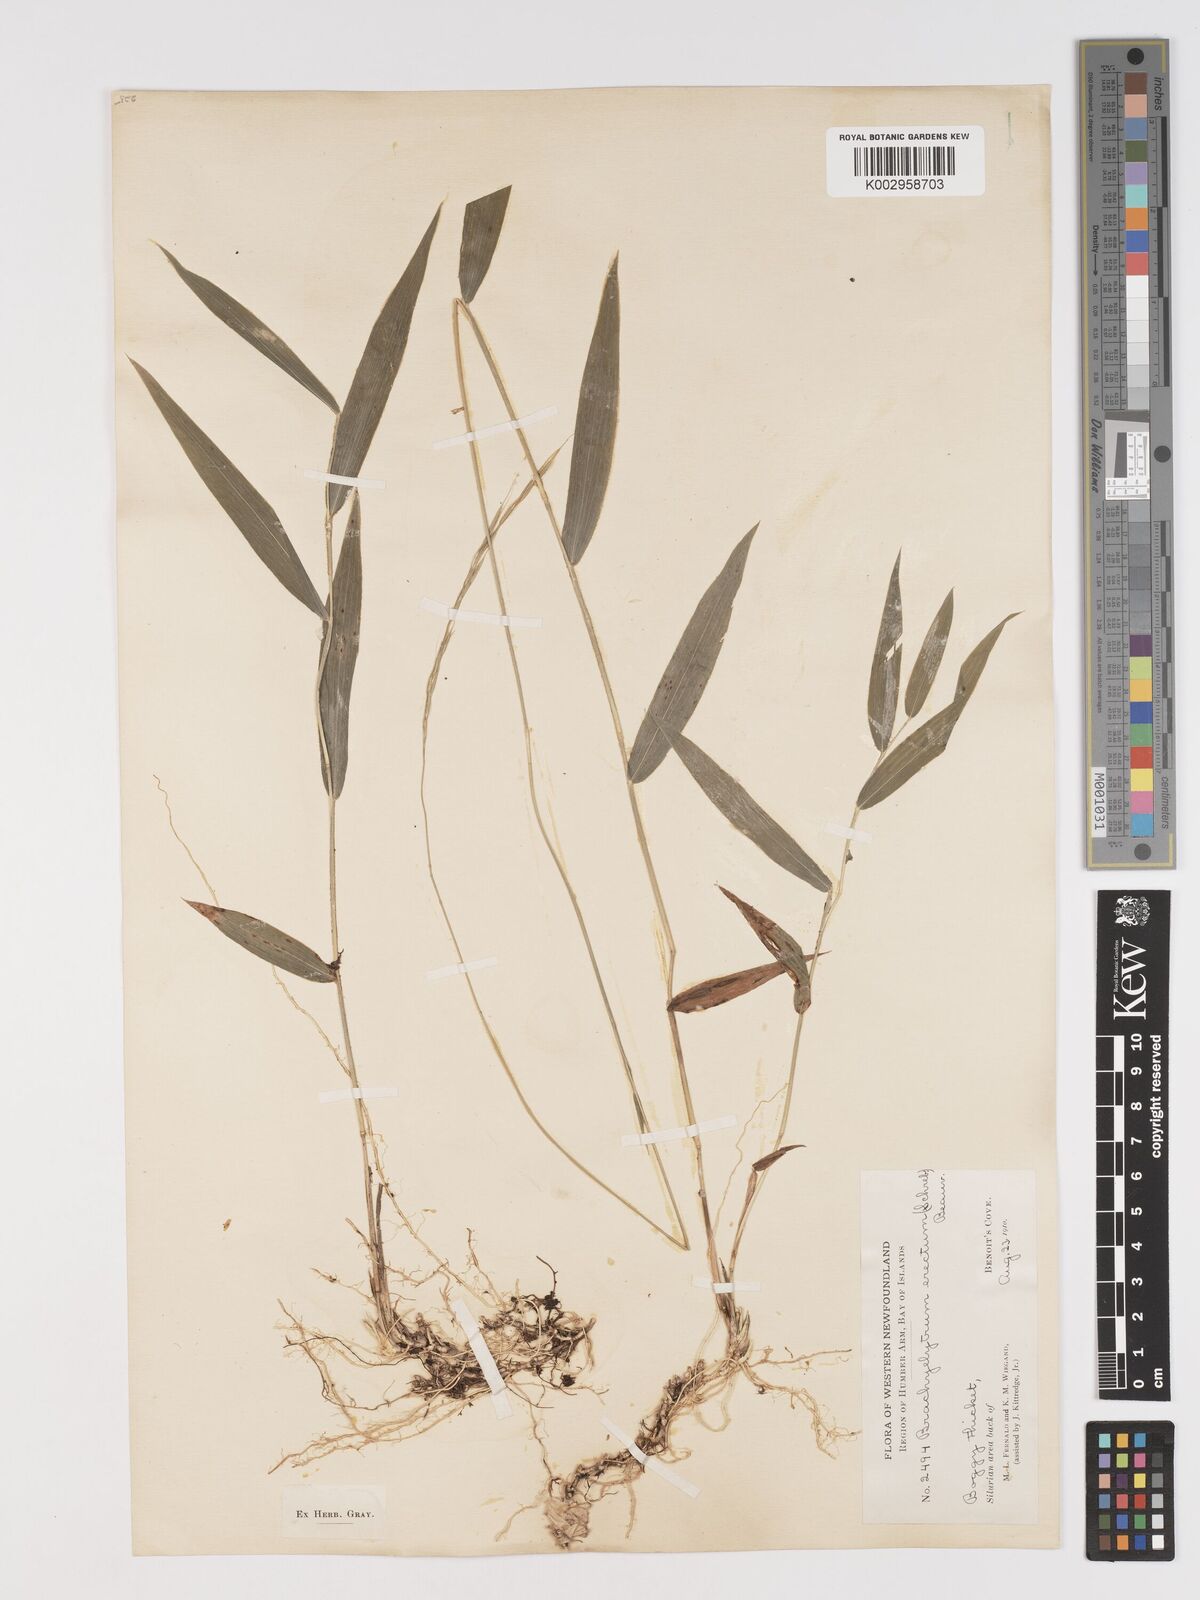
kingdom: Plantae
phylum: Tracheophyta
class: Liliopsida
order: Poales
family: Poaceae
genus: Brachyelytrum
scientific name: Brachyelytrum aristosum
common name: Northern shorthusk
